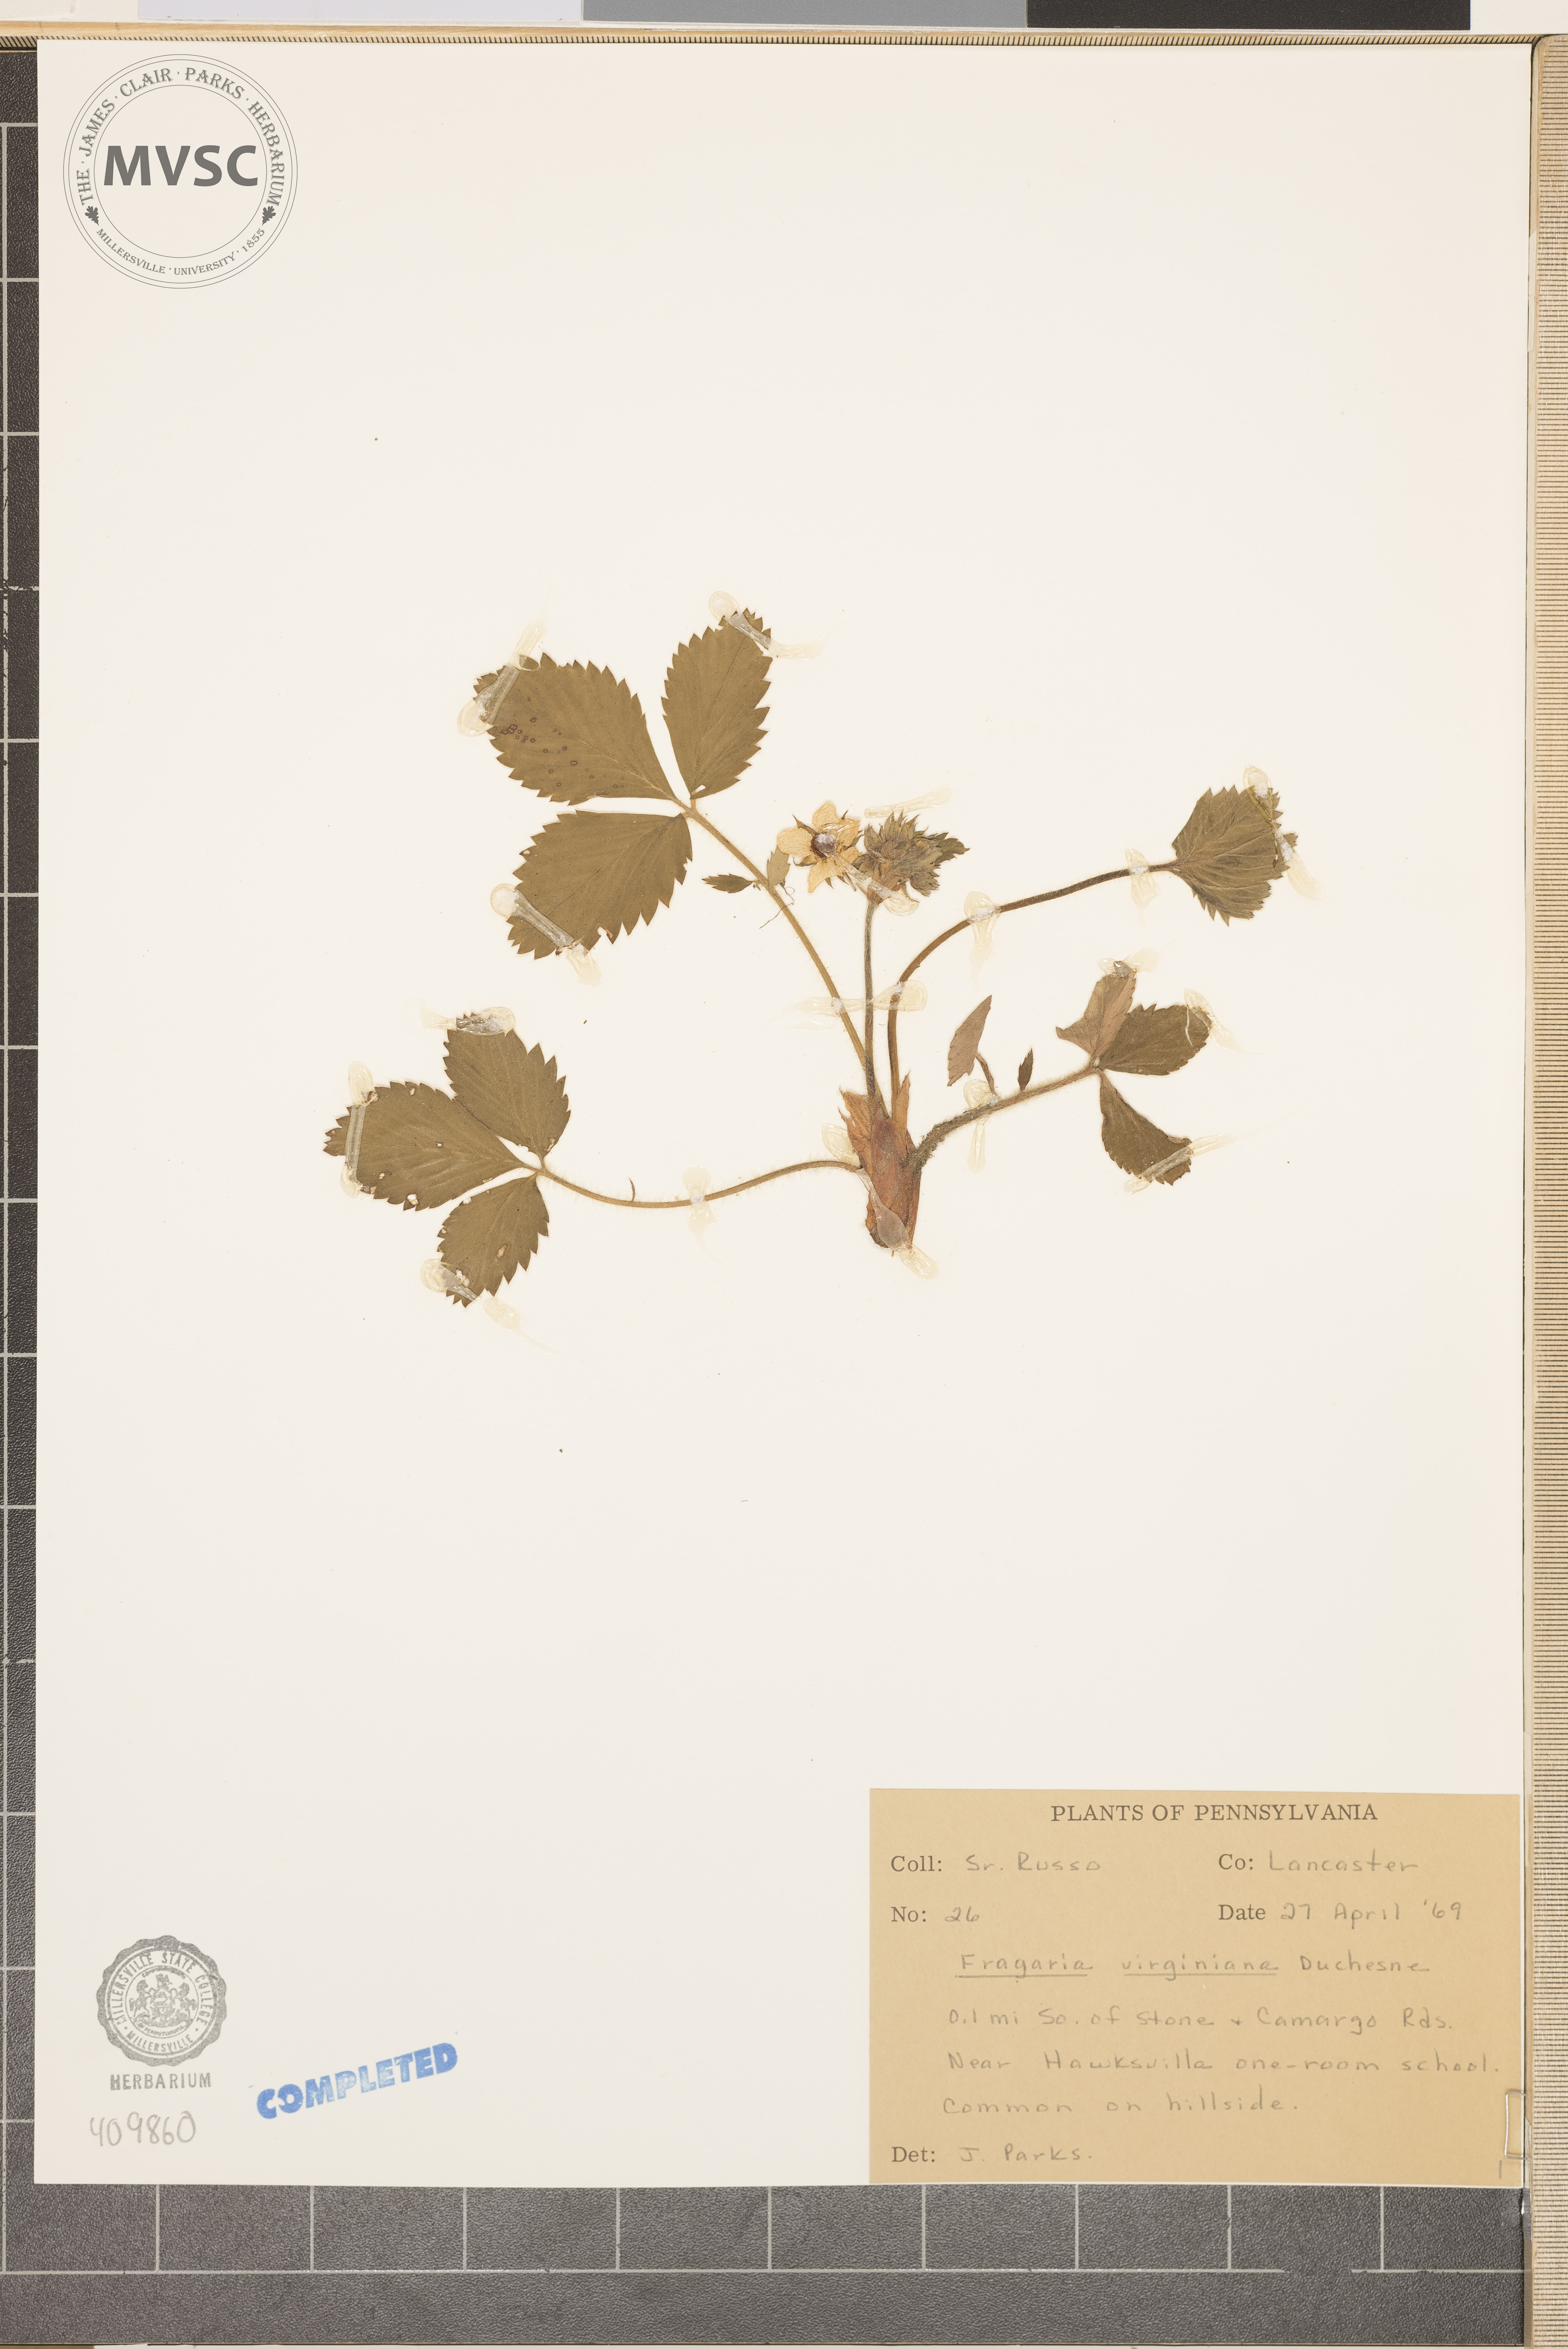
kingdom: Plantae
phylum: Tracheophyta
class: Magnoliopsida
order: Rosales
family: Rosaceae
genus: Fragaria
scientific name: Fragaria virginiana
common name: Thickleaved wild strawberry
